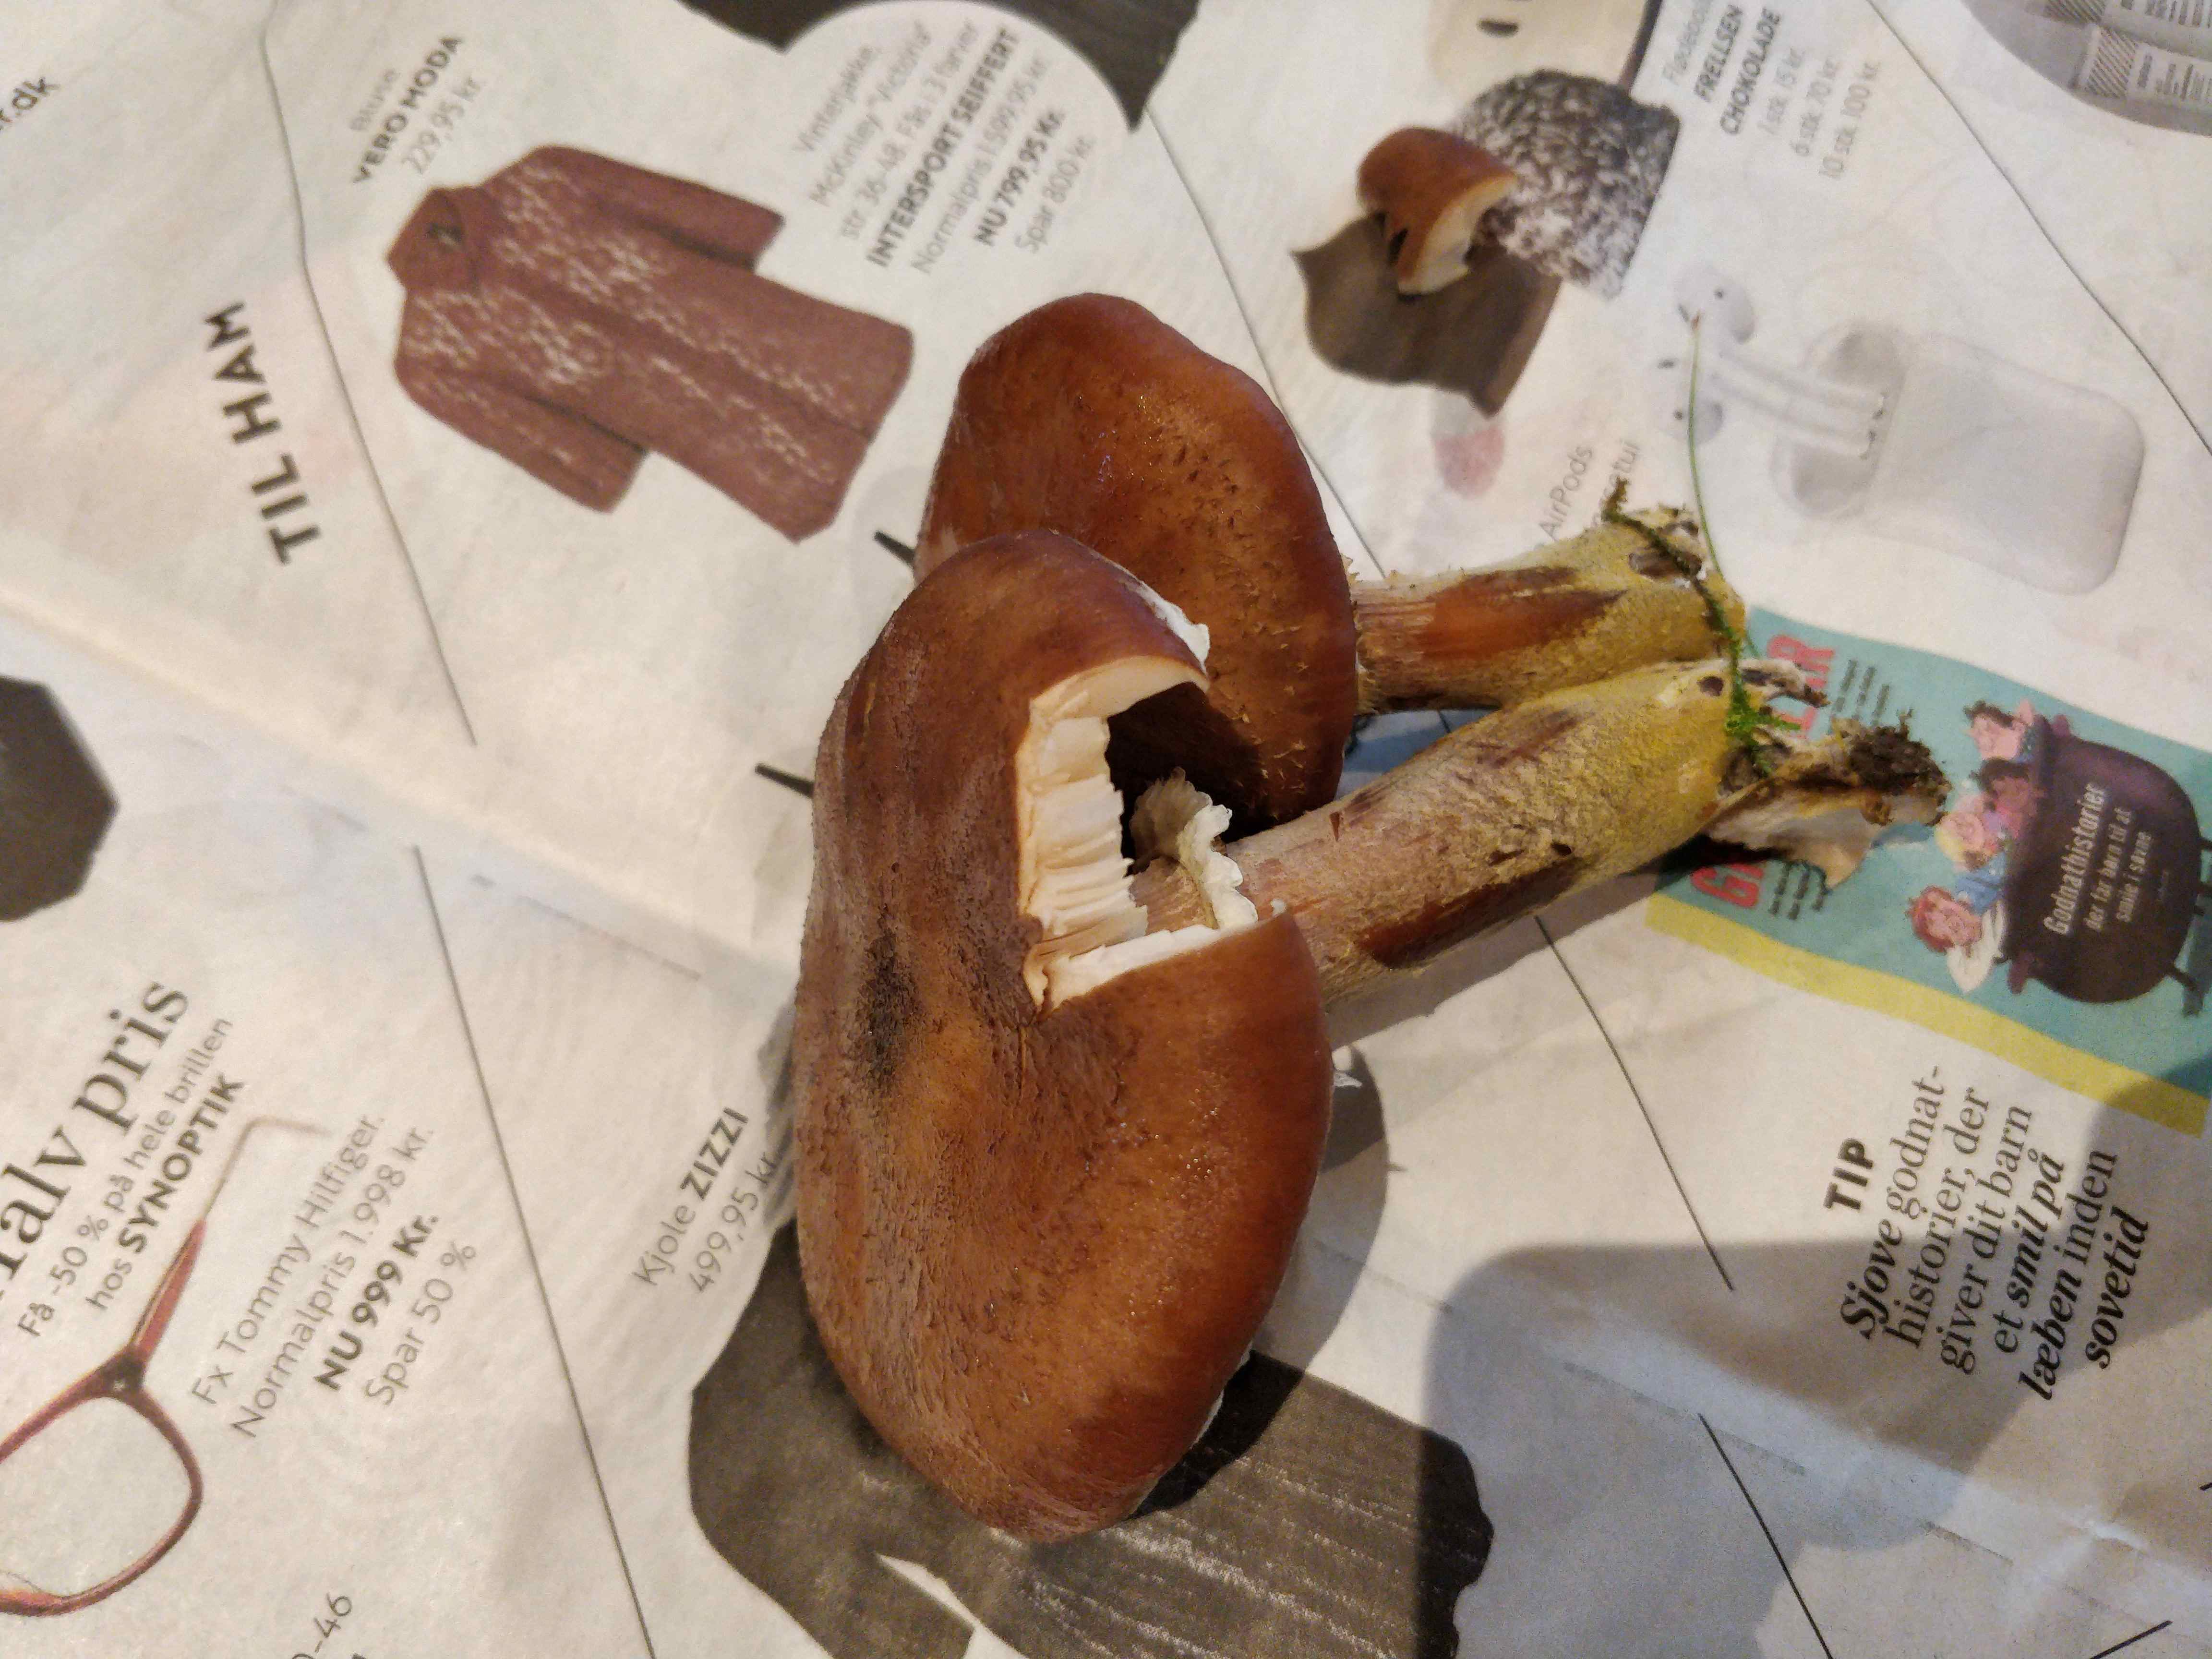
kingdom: Fungi
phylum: Basidiomycota
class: Agaricomycetes
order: Agaricales
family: Physalacriaceae
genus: Armillaria
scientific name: Armillaria
